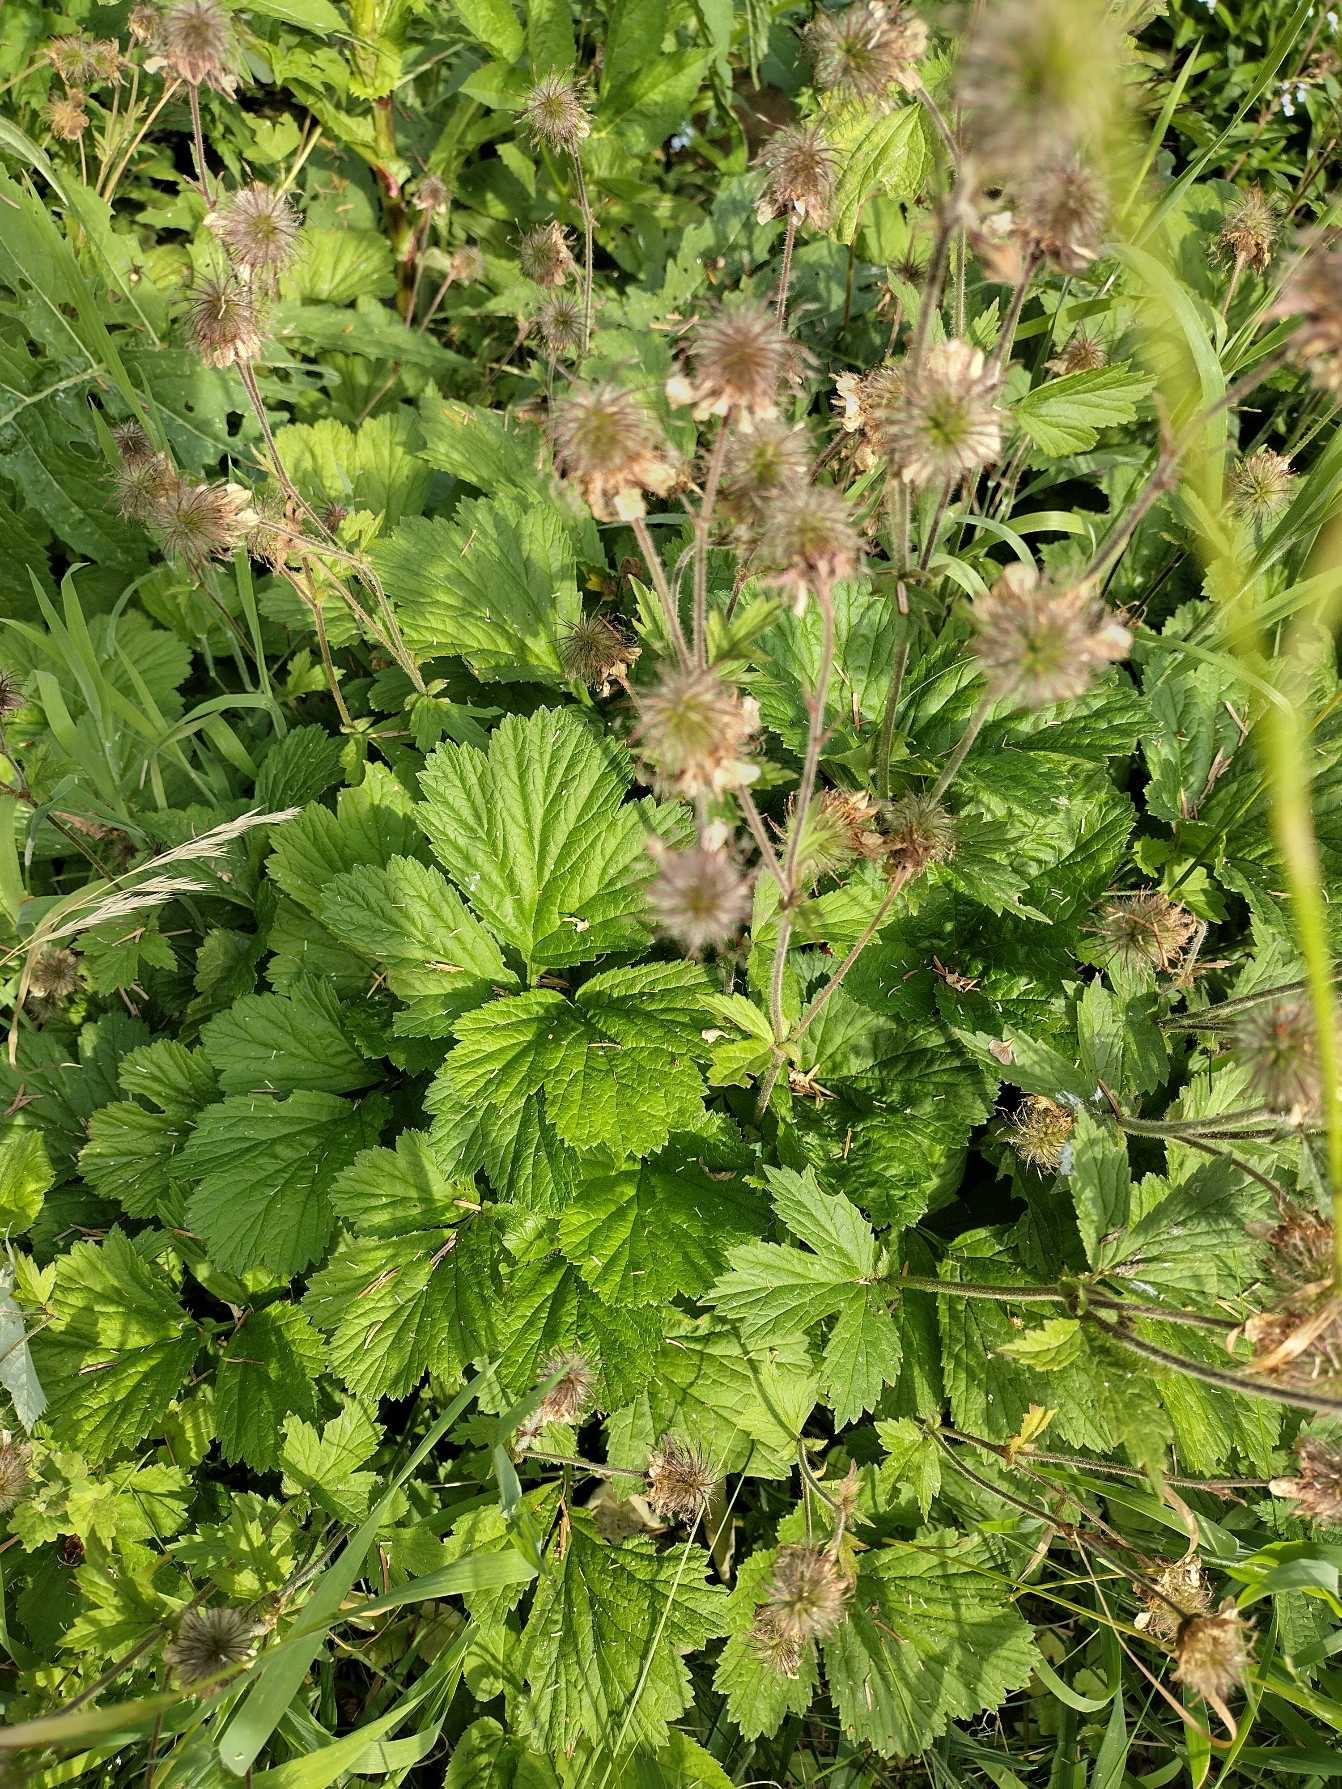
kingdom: Plantae
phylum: Tracheophyta
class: Magnoliopsida
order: Rosales
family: Rosaceae
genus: Geum
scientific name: Geum rivale
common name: Eng-nellikerod
